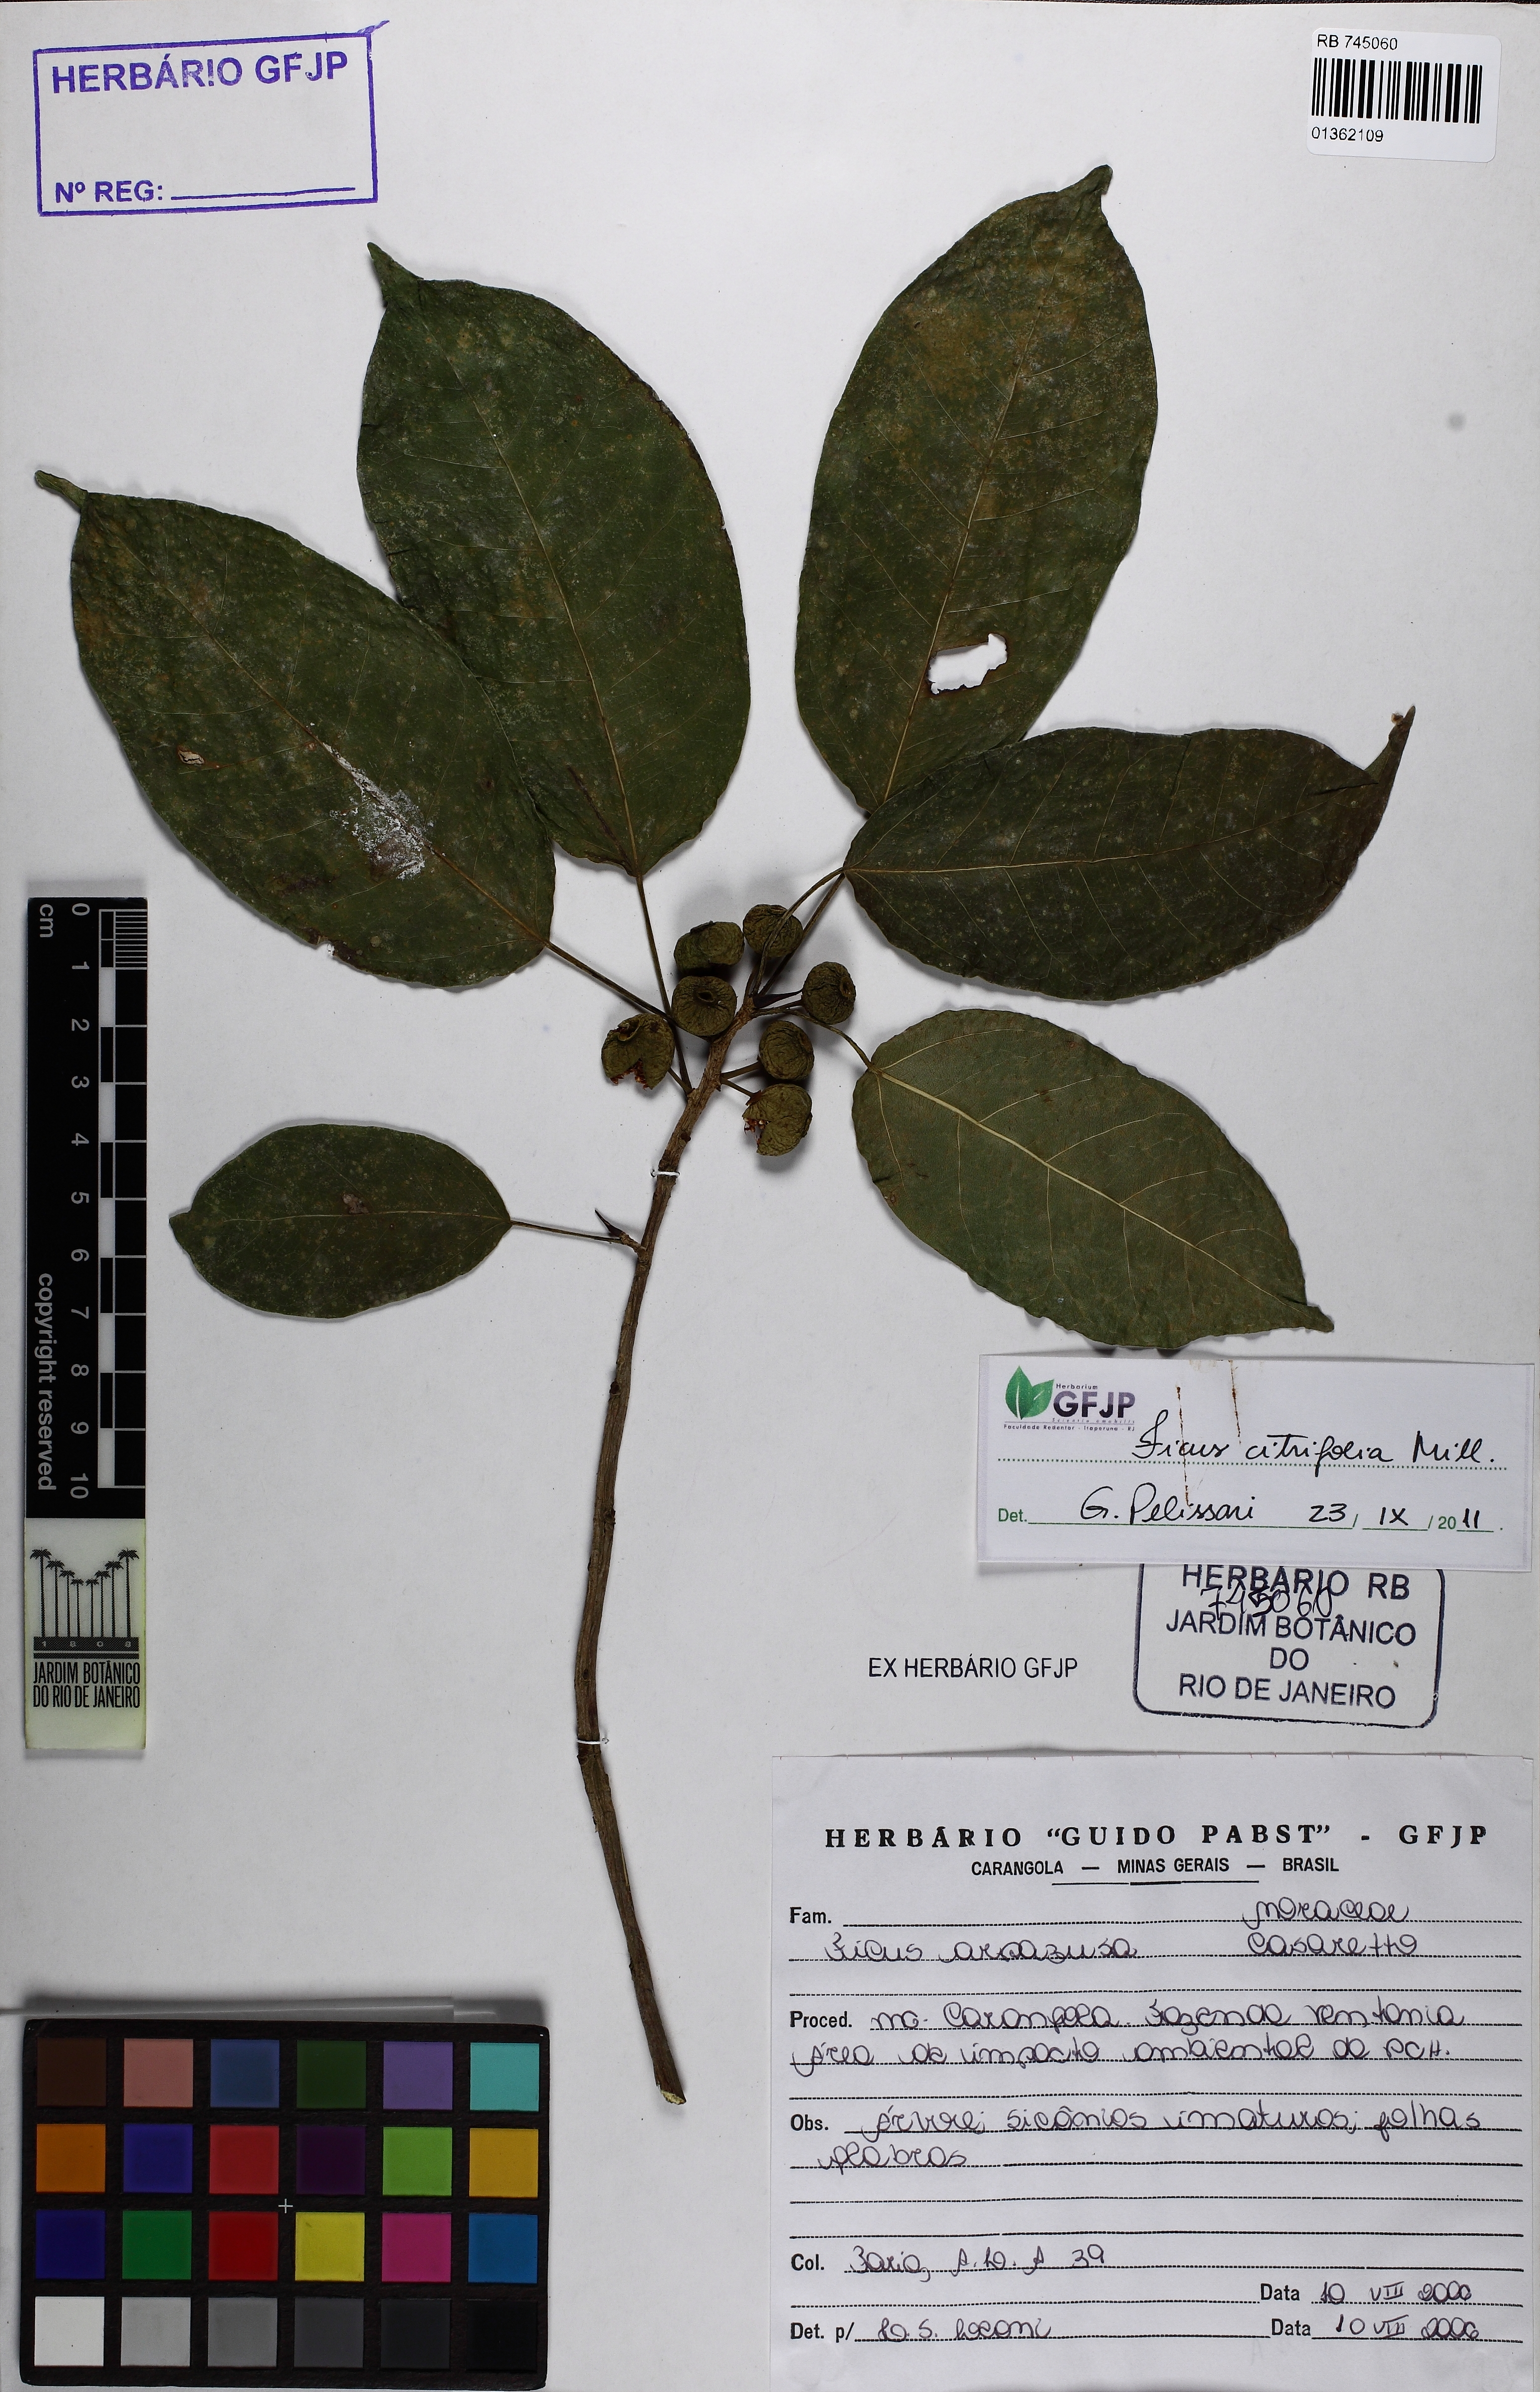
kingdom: Plantae
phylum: Tracheophyta
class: Magnoliopsida
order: Rosales
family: Moraceae
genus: Ficus
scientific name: Ficus arpazusa
